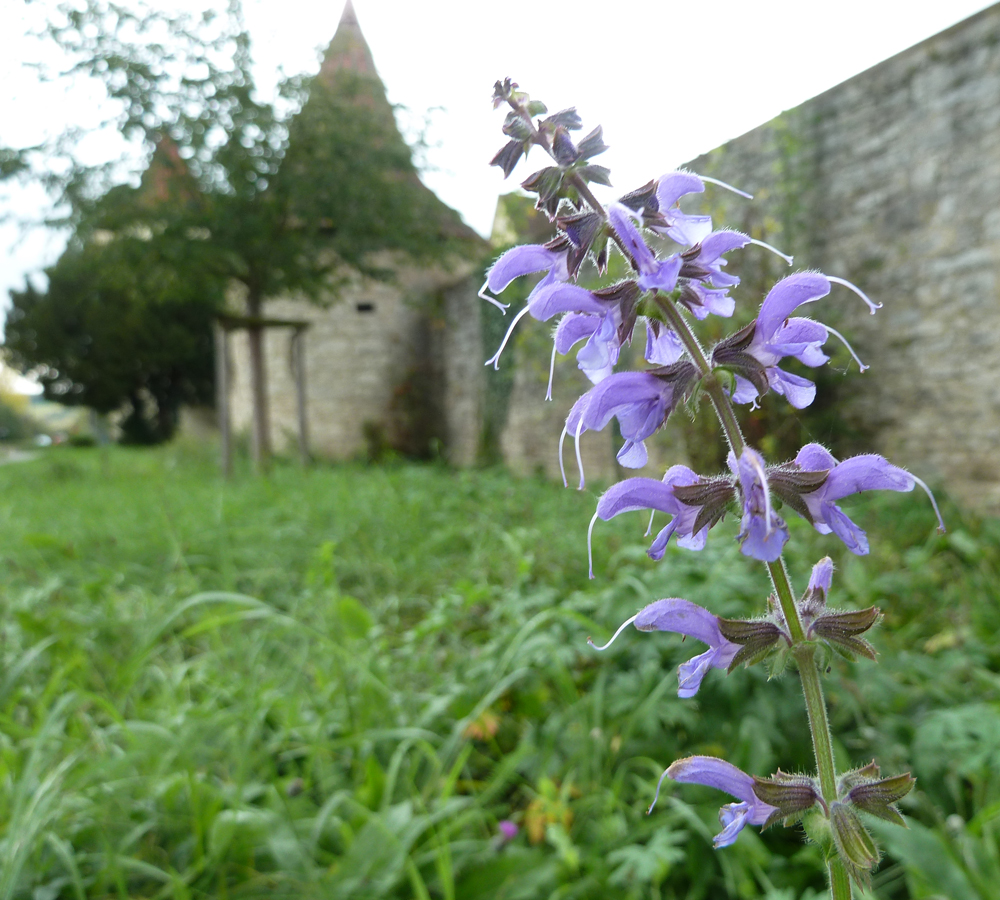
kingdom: Plantae
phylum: Tracheophyta
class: Magnoliopsida
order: Lamiales
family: Lamiaceae
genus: Salvia
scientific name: Salvia pratensis
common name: Meadow sage
